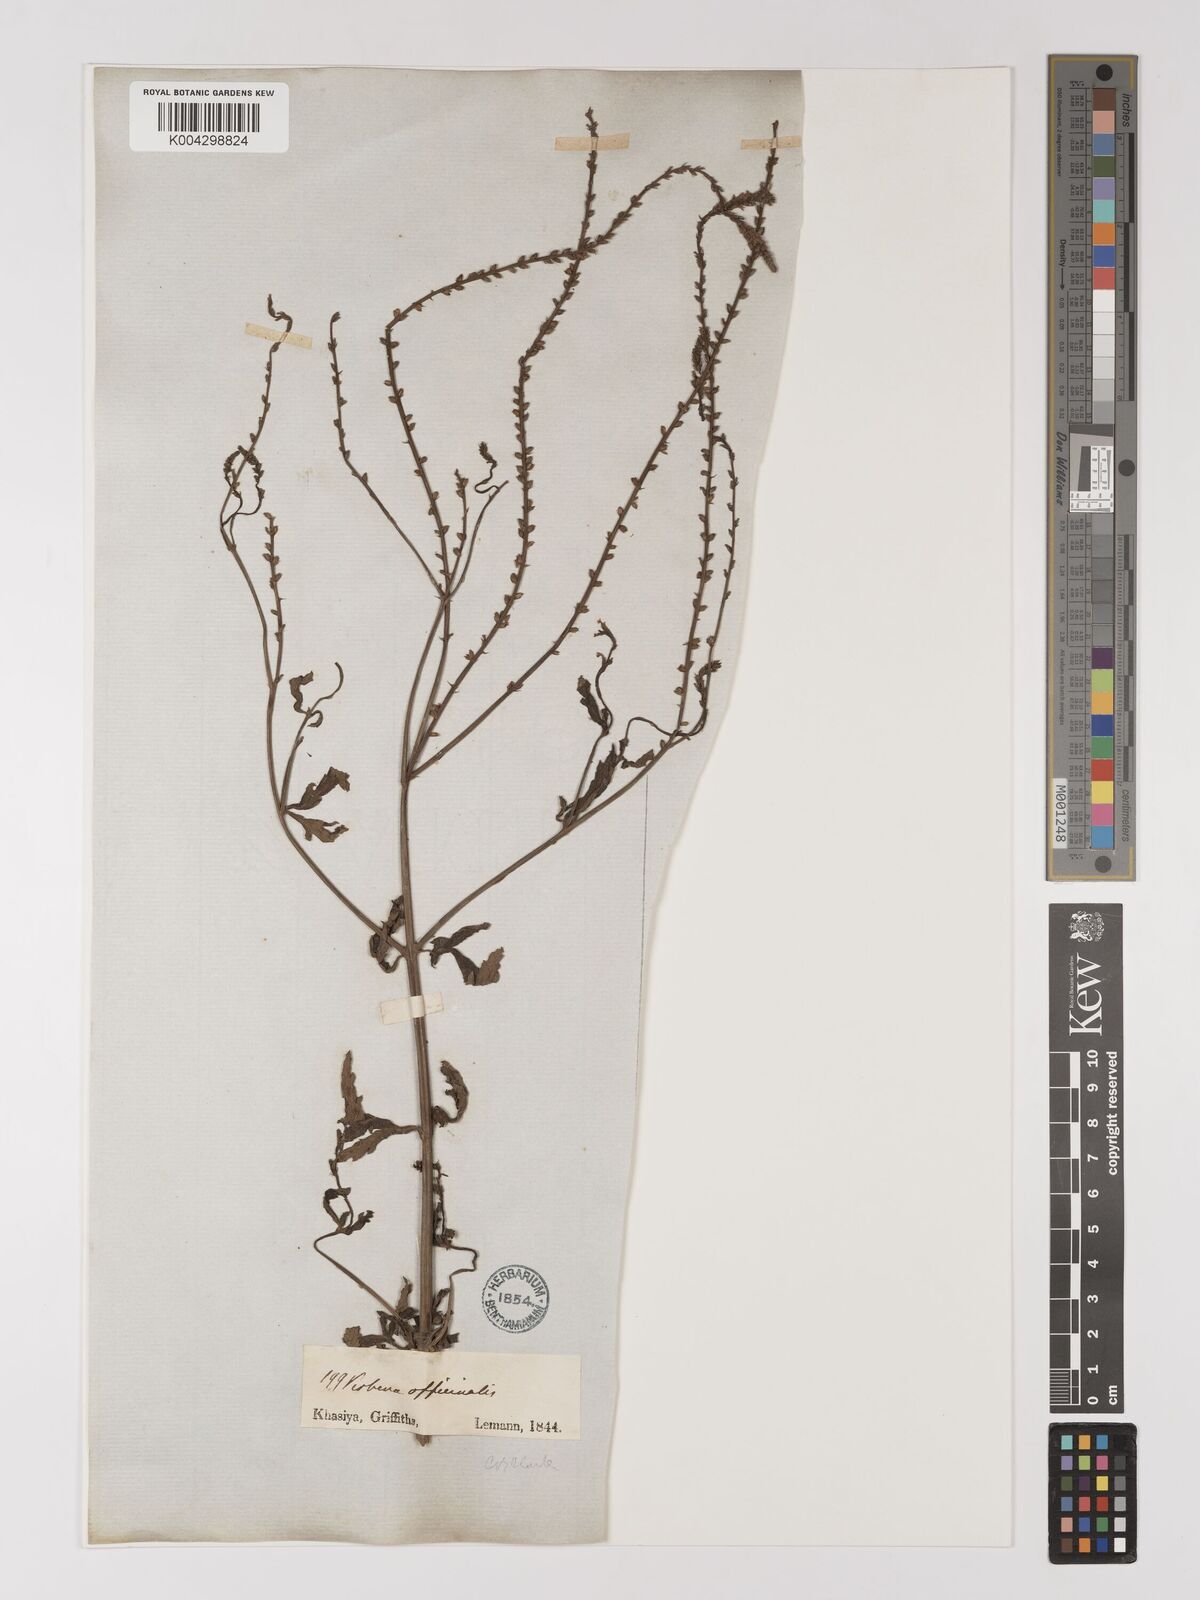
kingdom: Plantae
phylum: Tracheophyta
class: Magnoliopsida
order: Lamiales
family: Verbenaceae
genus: Verbena
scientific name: Verbena officinalis
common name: Vervain
